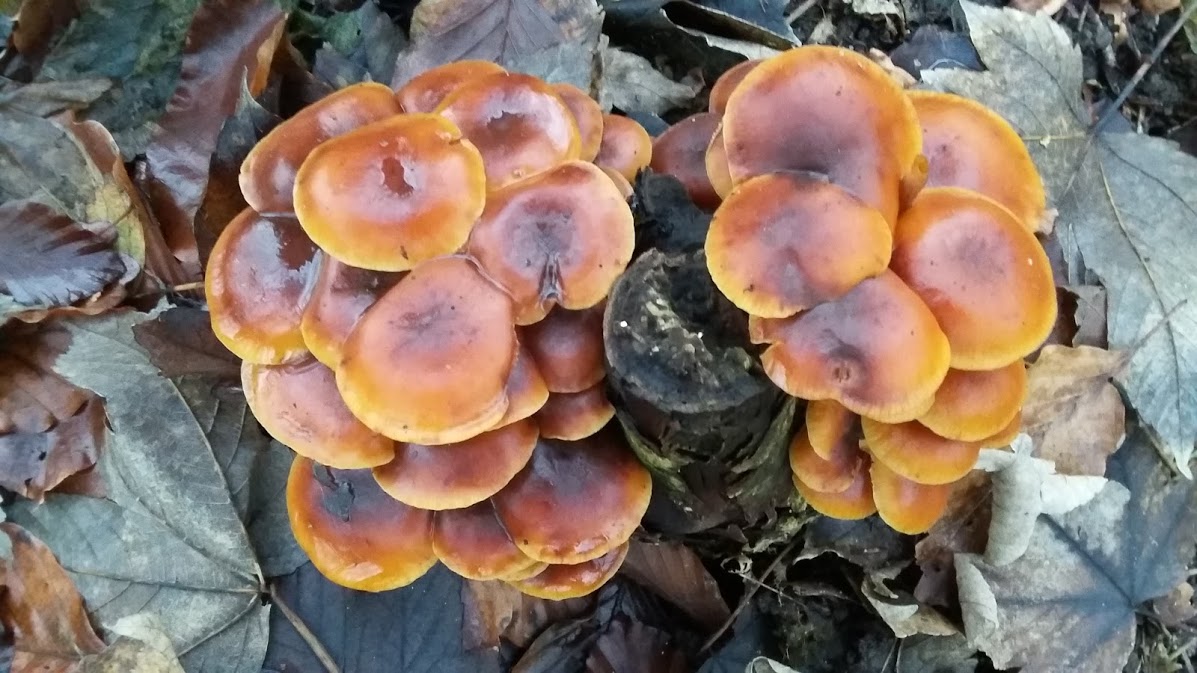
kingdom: Fungi
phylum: Basidiomycota
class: Agaricomycetes
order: Agaricales
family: Physalacriaceae
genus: Flammulina
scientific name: Flammulina
